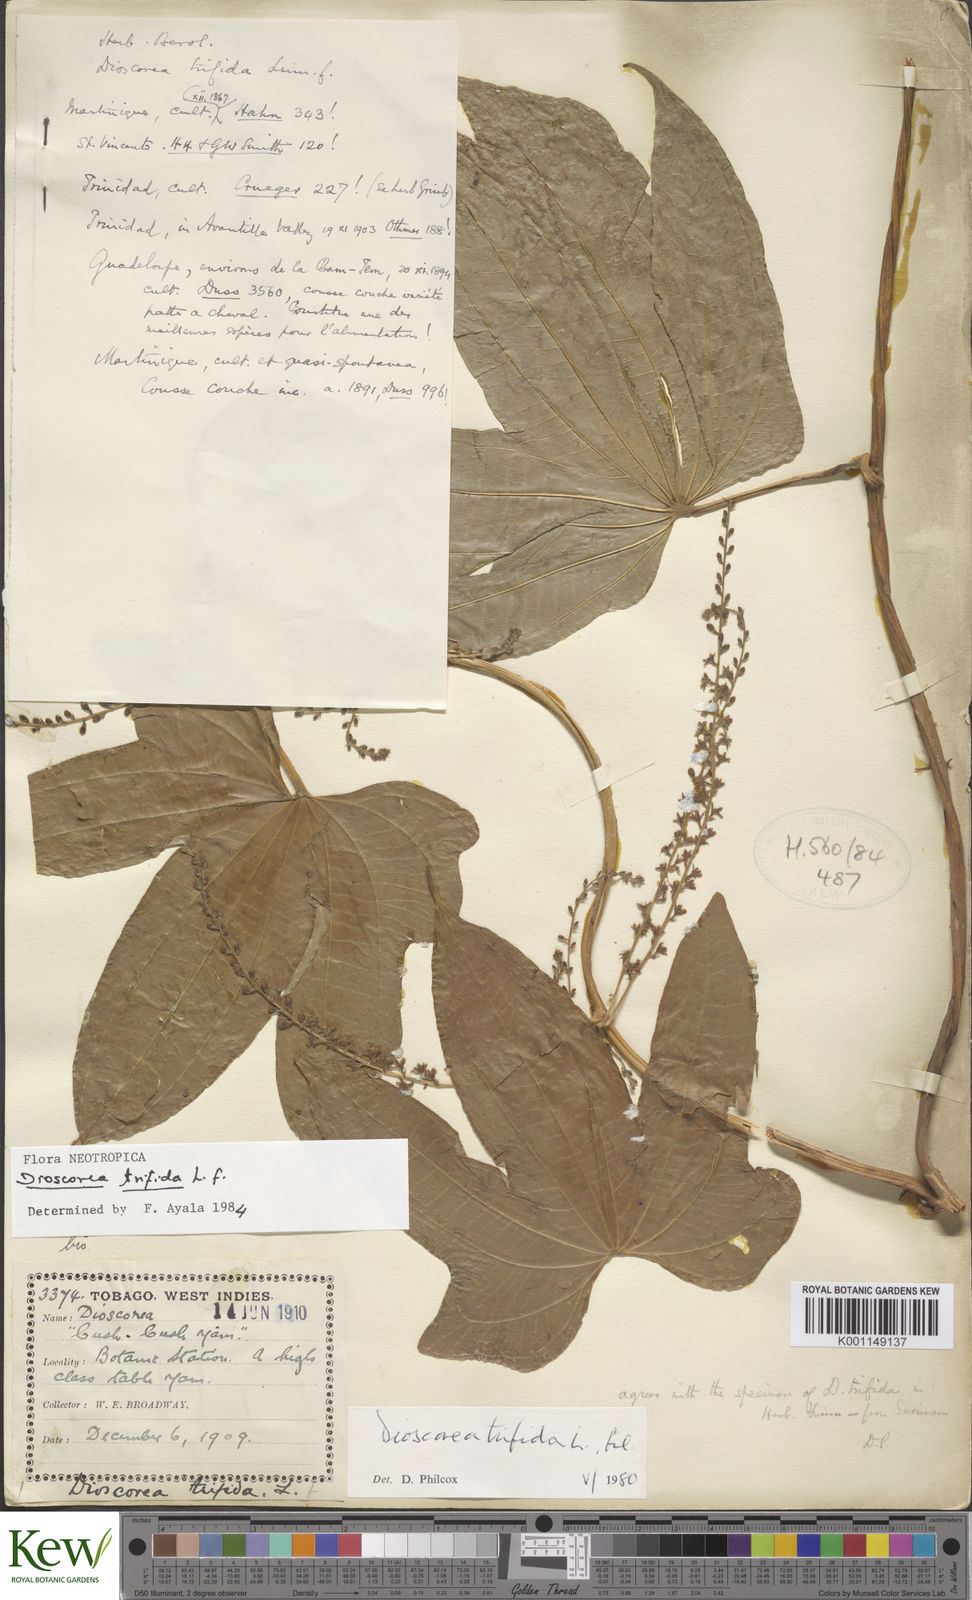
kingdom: Plantae
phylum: Tracheophyta
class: Liliopsida
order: Dioscoreales
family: Dioscoreaceae
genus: Dioscorea
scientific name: Dioscorea trifida
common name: Cush-cush
